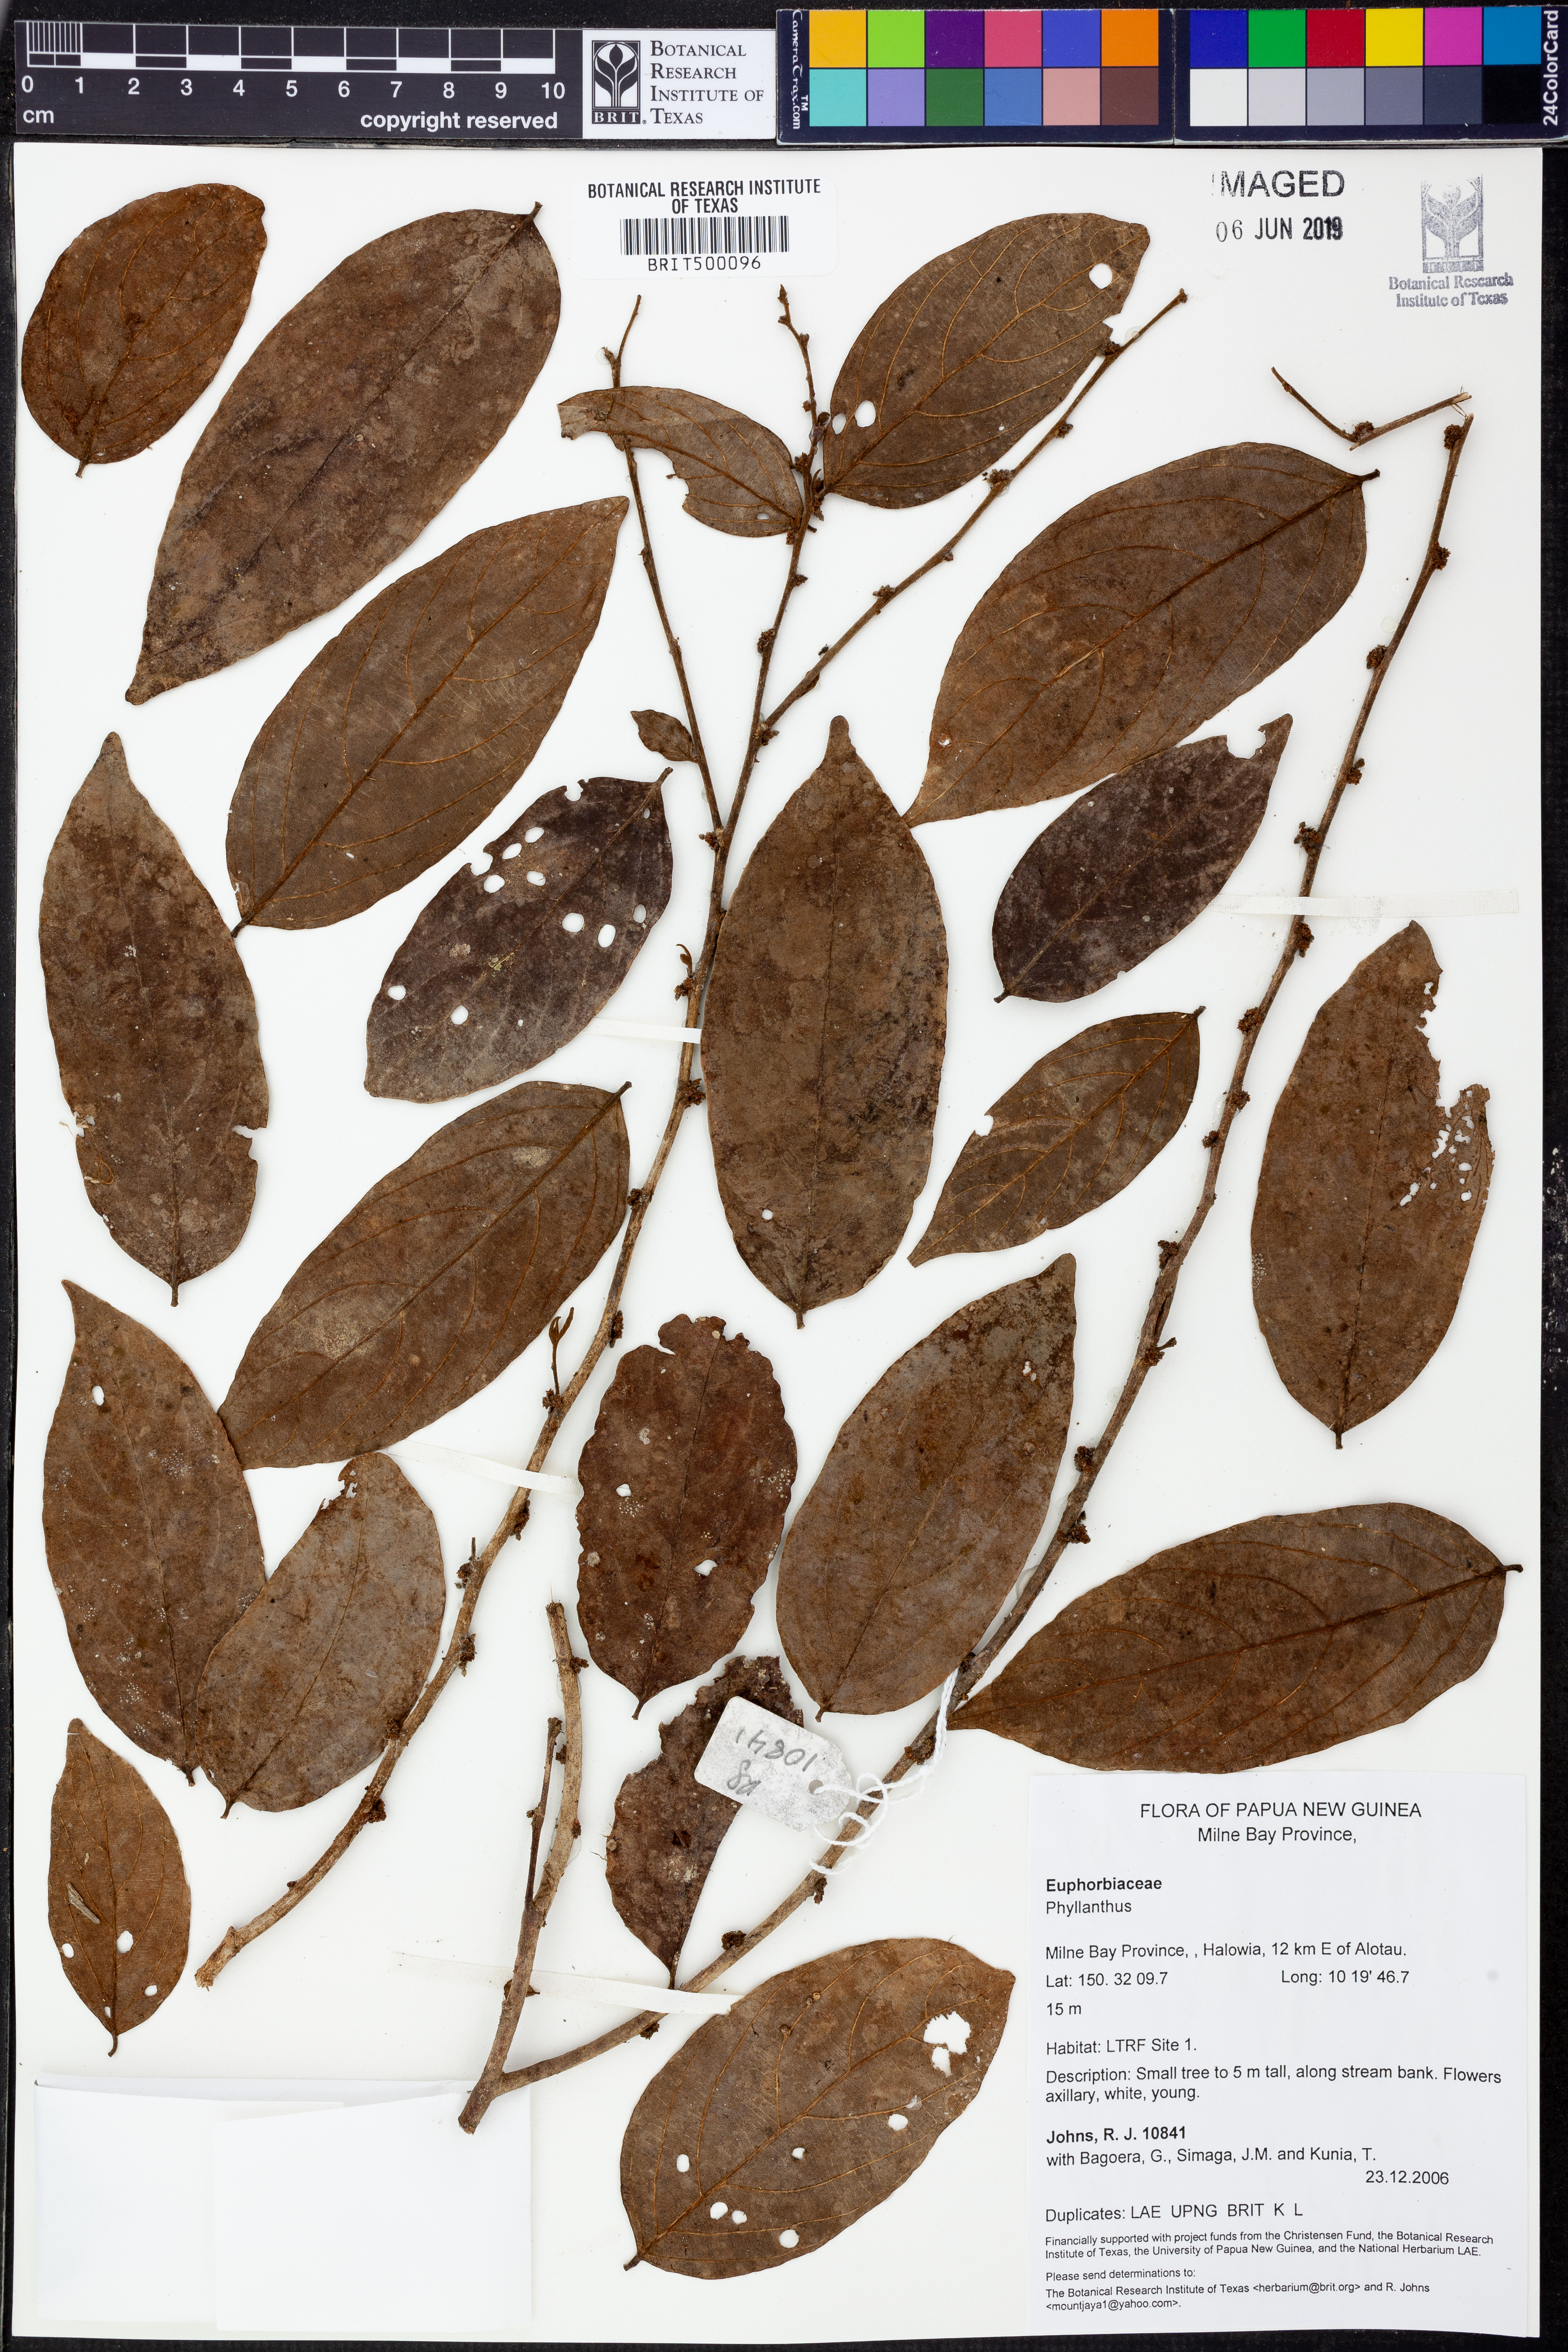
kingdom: Plantae
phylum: Tracheophyta
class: Magnoliopsida
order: Malpighiales
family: Phyllanthaceae
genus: Phyllanthus
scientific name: Phyllanthus
